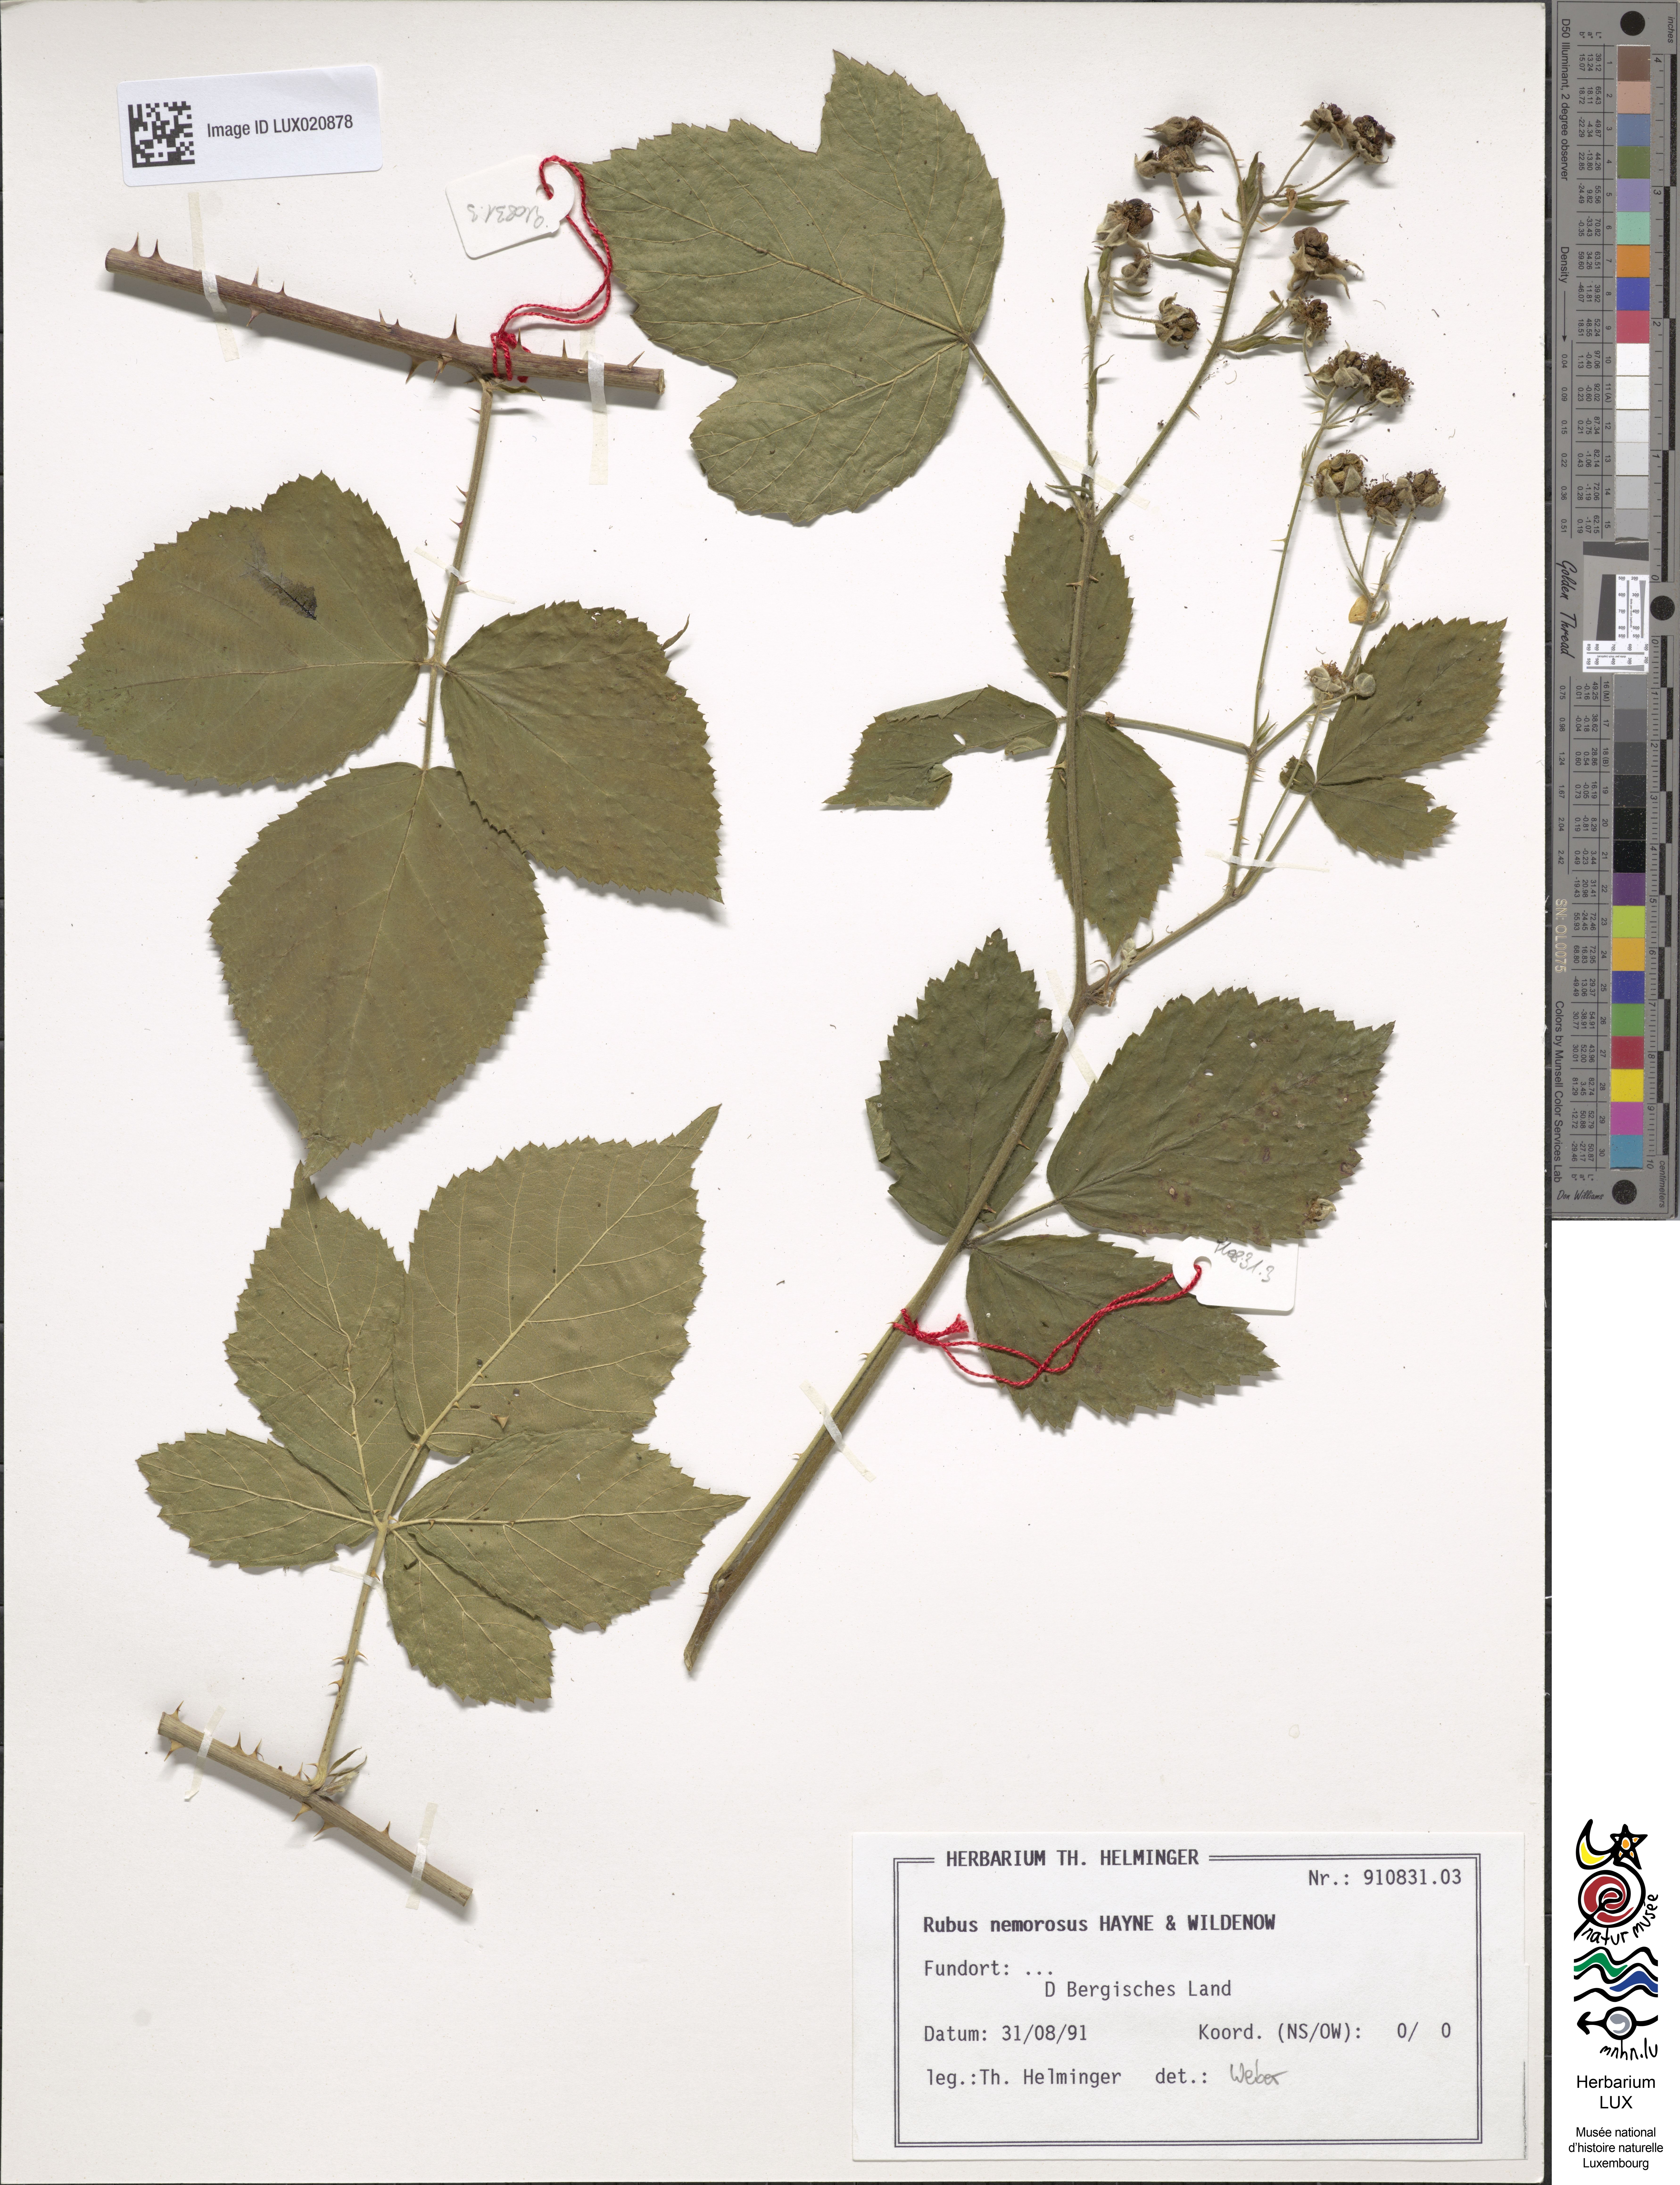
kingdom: Plantae
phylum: Tracheophyta
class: Magnoliopsida
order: Rosales
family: Rosaceae
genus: Rubus
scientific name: Rubus nemorosus
